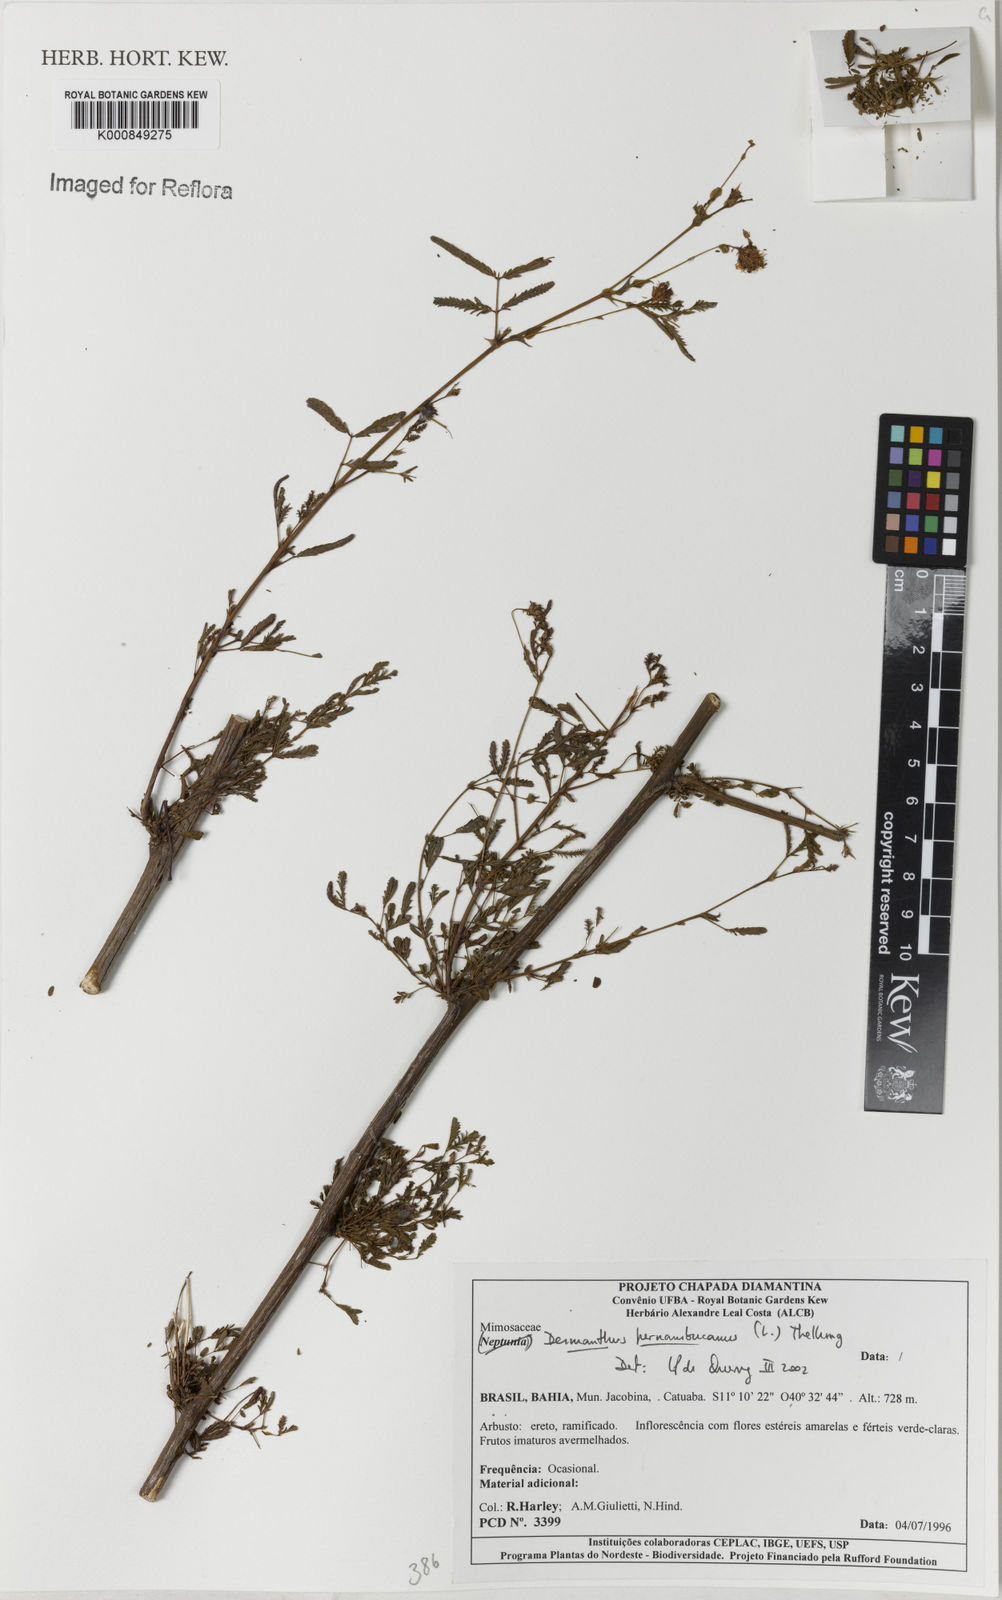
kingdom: Plantae
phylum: Tracheophyta
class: Magnoliopsida
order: Fabales
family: Fabaceae
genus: Desmanthus
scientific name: Desmanthus pernambucanus
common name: Pigeon bundleflower
